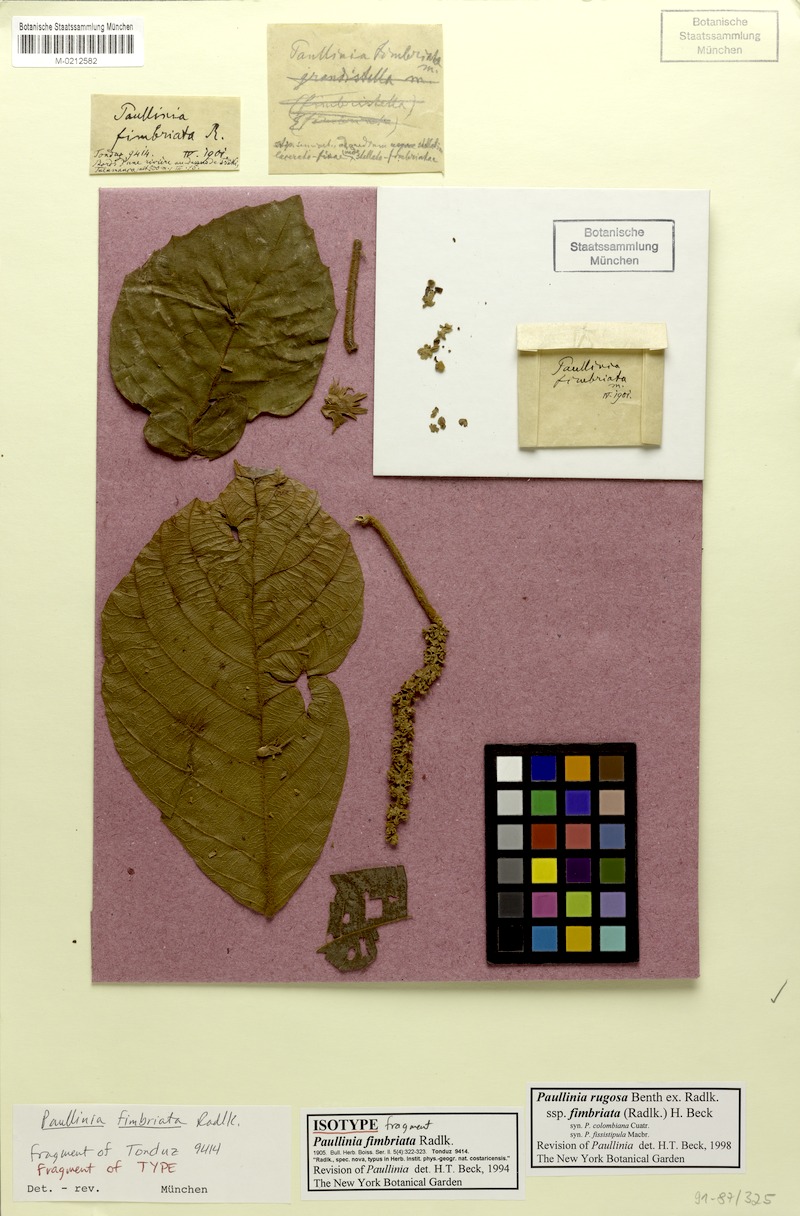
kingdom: Plantae
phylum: Tracheophyta
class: Magnoliopsida
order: Sapindales
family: Sapindaceae
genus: Paullinia
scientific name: Paullinia rugosa
